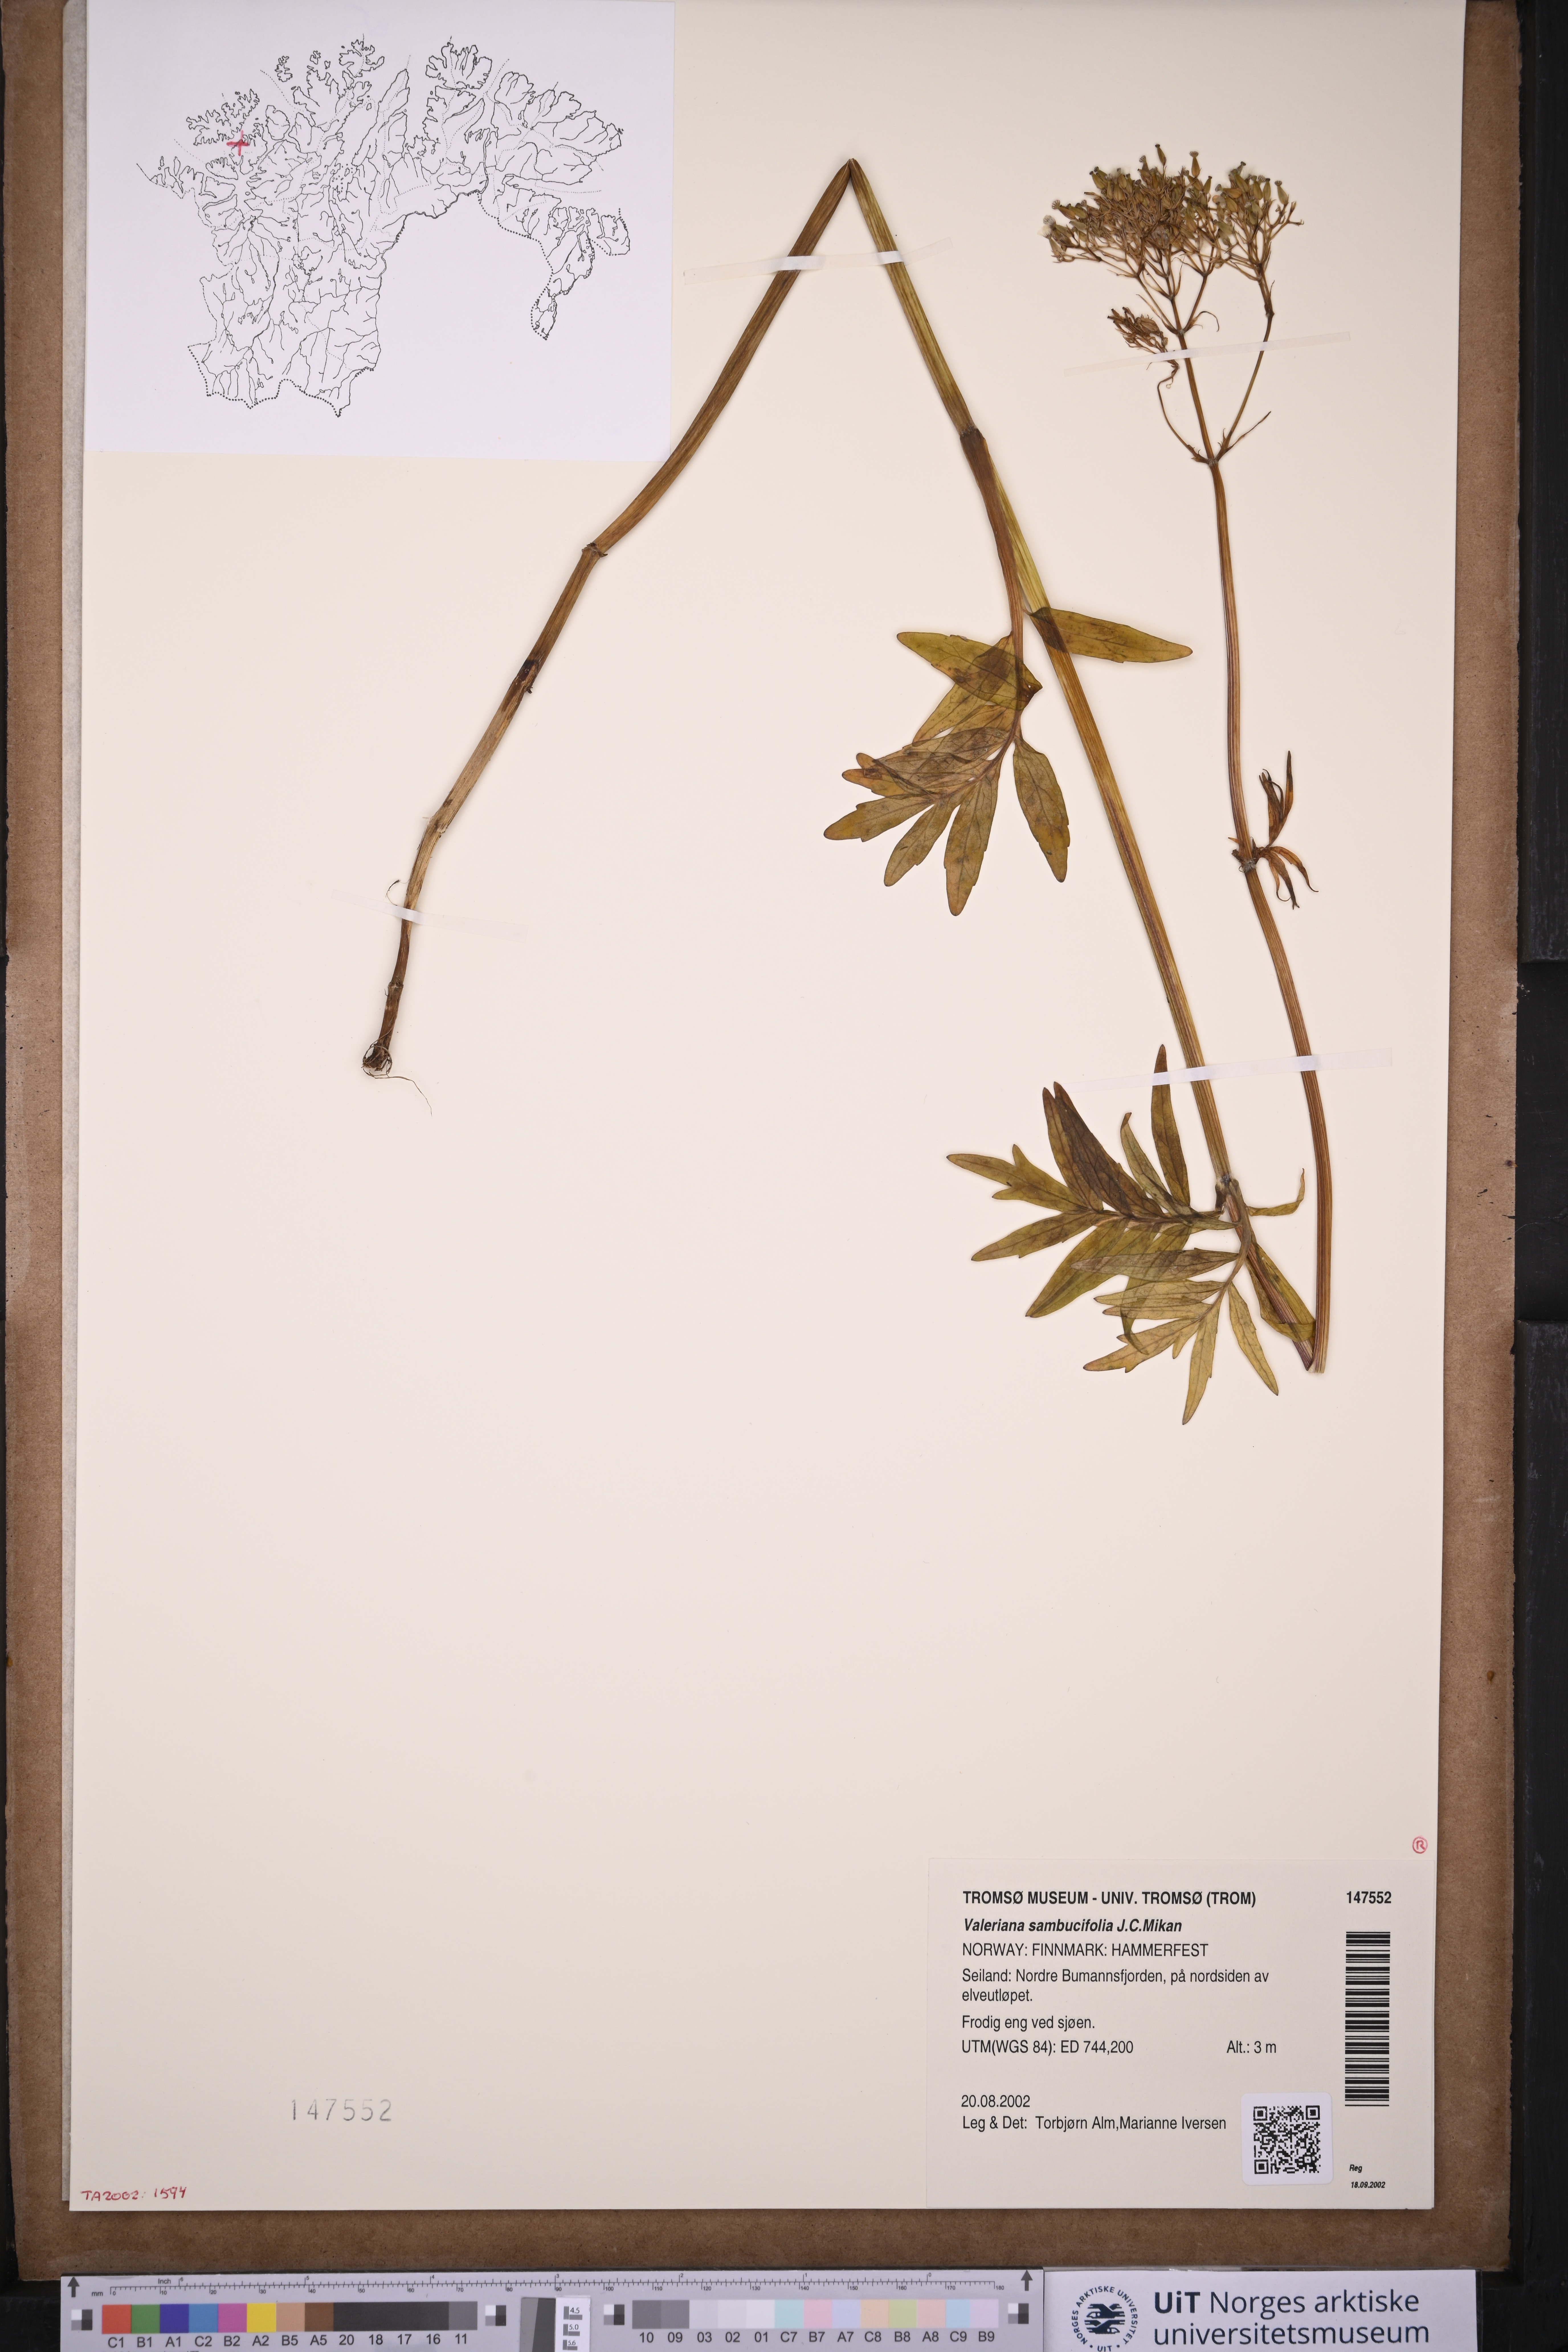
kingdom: Plantae
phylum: Tracheophyta
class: Magnoliopsida
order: Dipsacales
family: Caprifoliaceae
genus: Valeriana
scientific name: Valeriana excelsa
